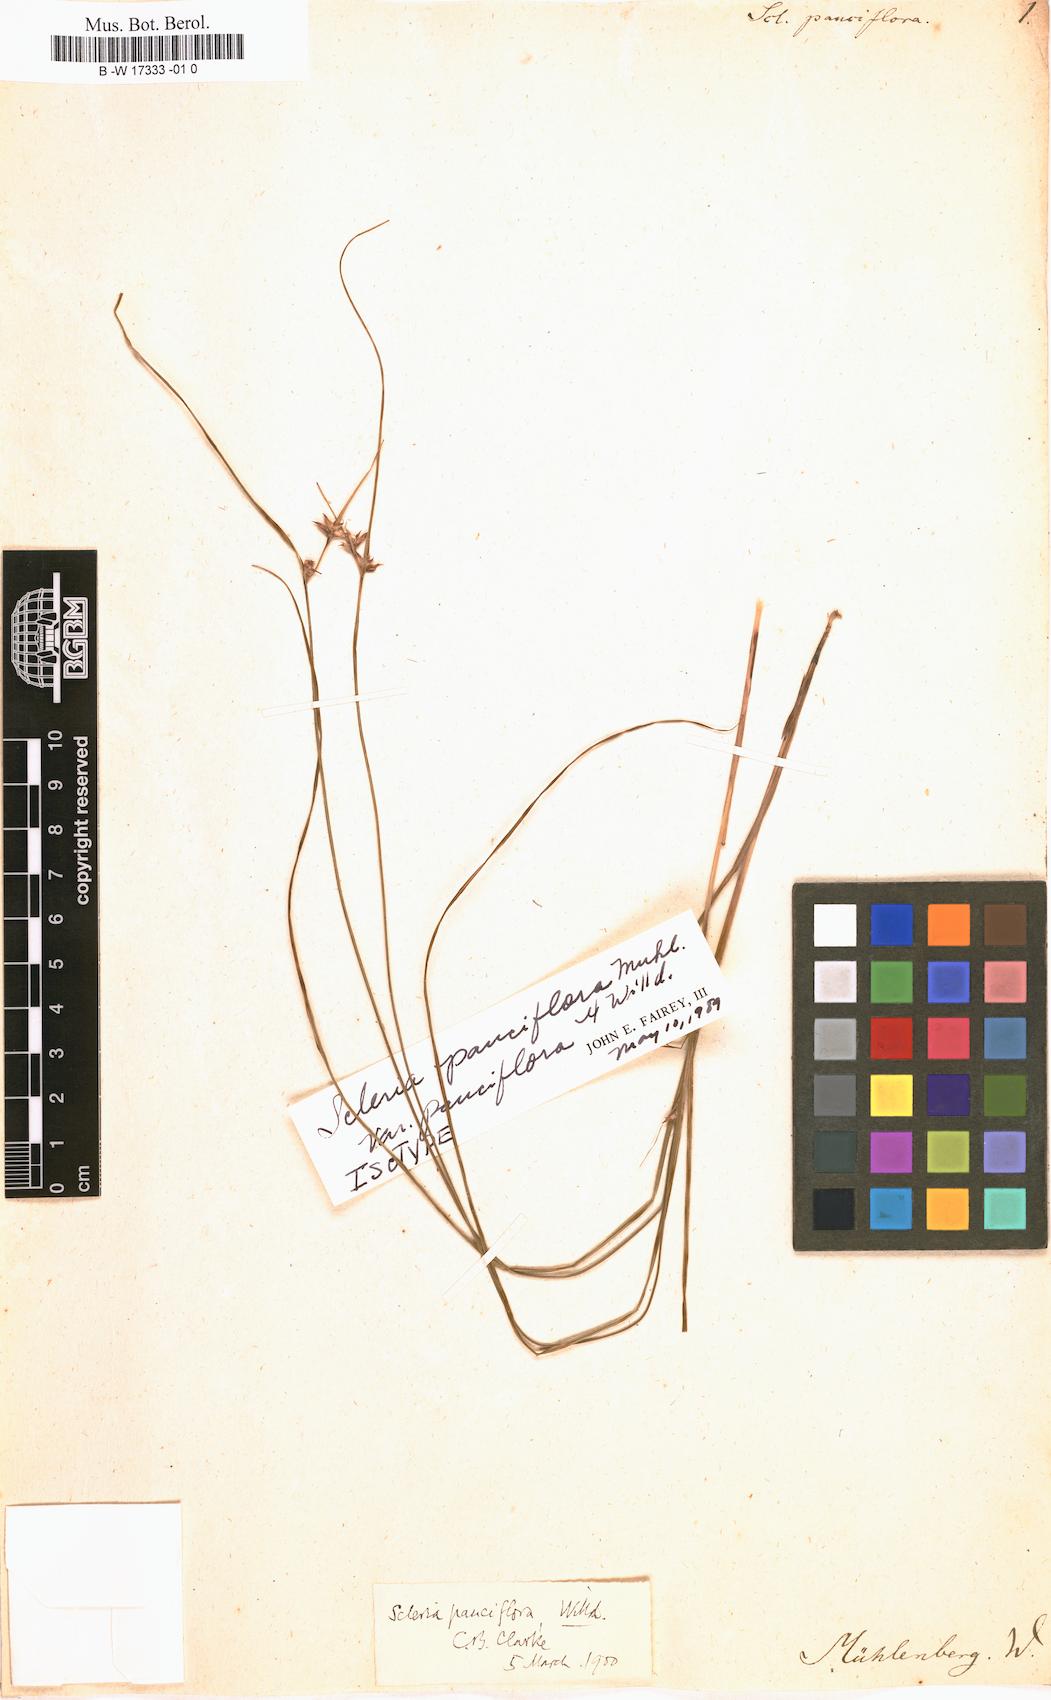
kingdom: Plantae
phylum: Tracheophyta
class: Liliopsida
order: Poales
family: Cyperaceae
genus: Scleria
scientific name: Scleria pauciflora
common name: Few-flowered nutrush
